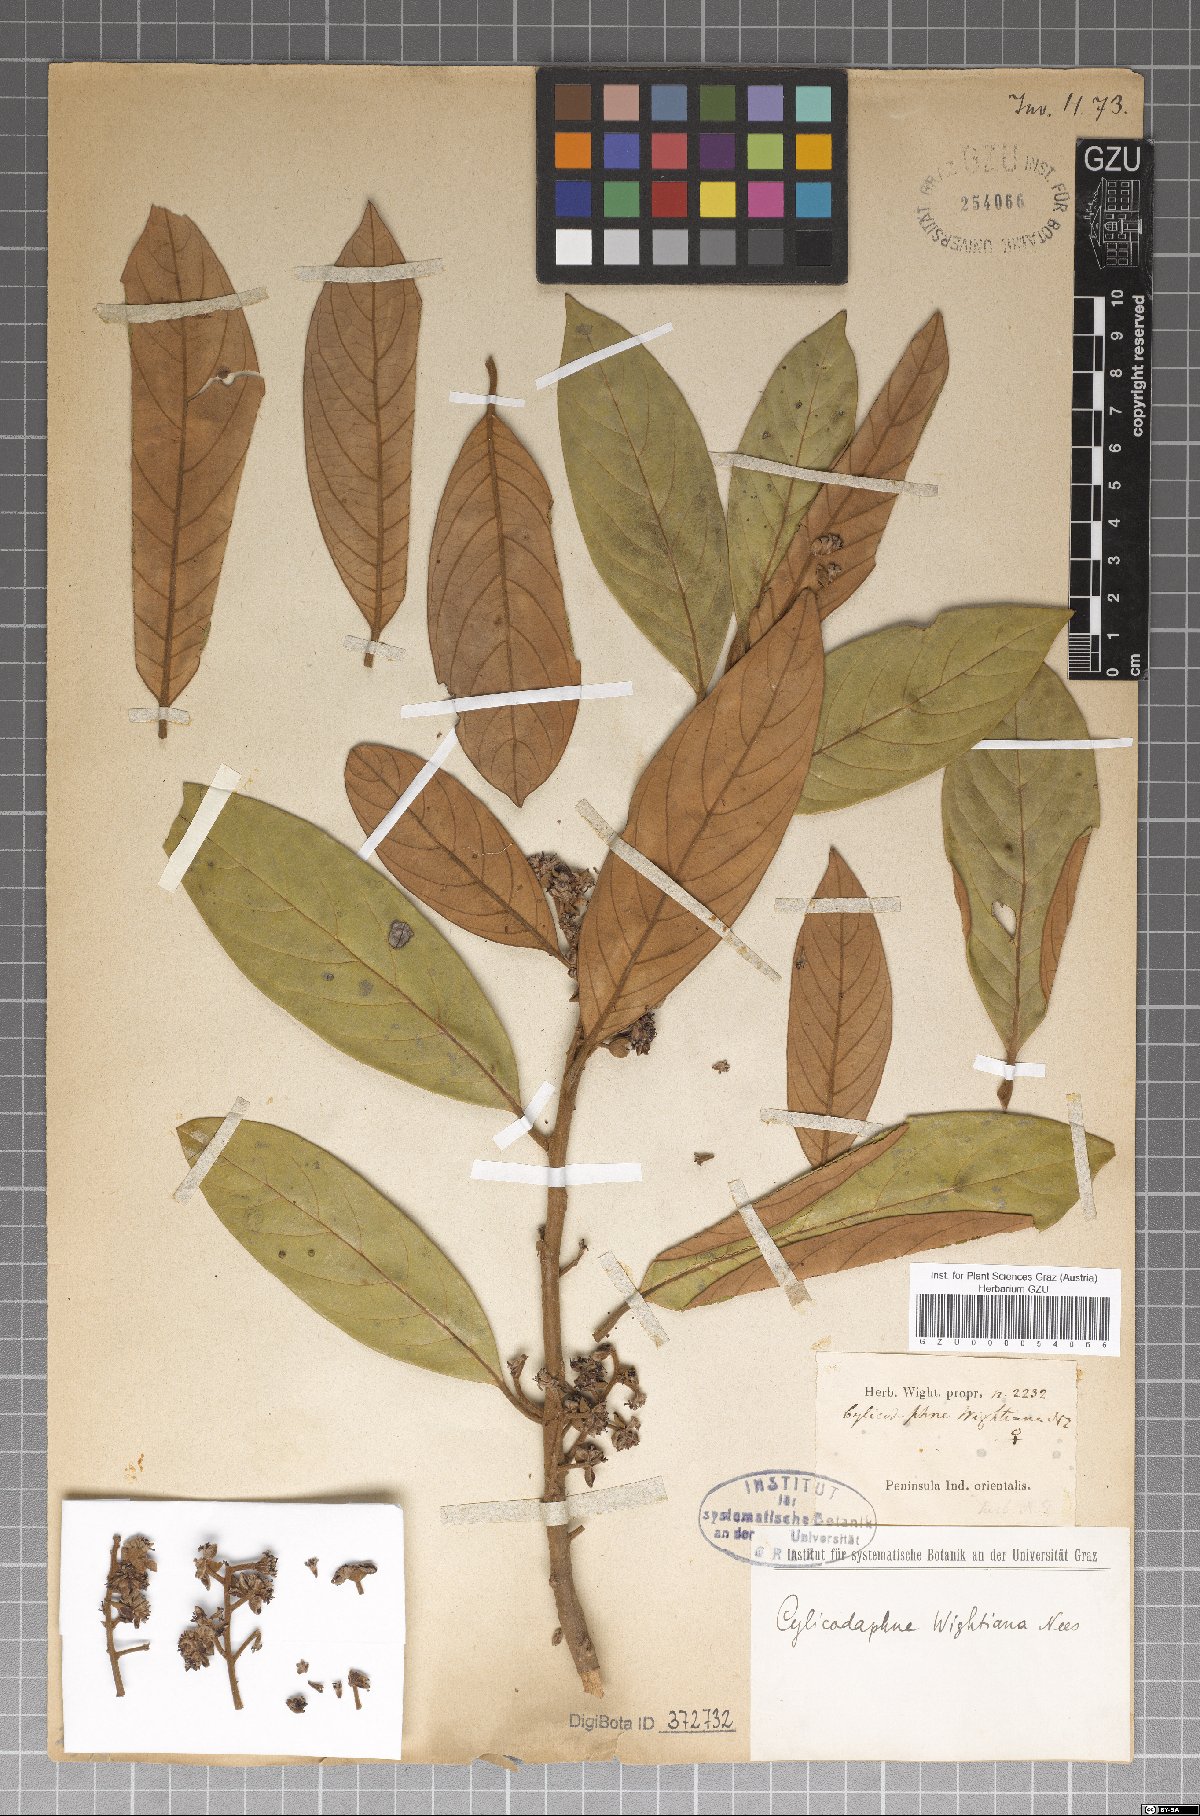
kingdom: Plantae
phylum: Tracheophyta
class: Magnoliopsida
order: Laurales
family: Lauraceae
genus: Litsea
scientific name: Litsea wightiana
